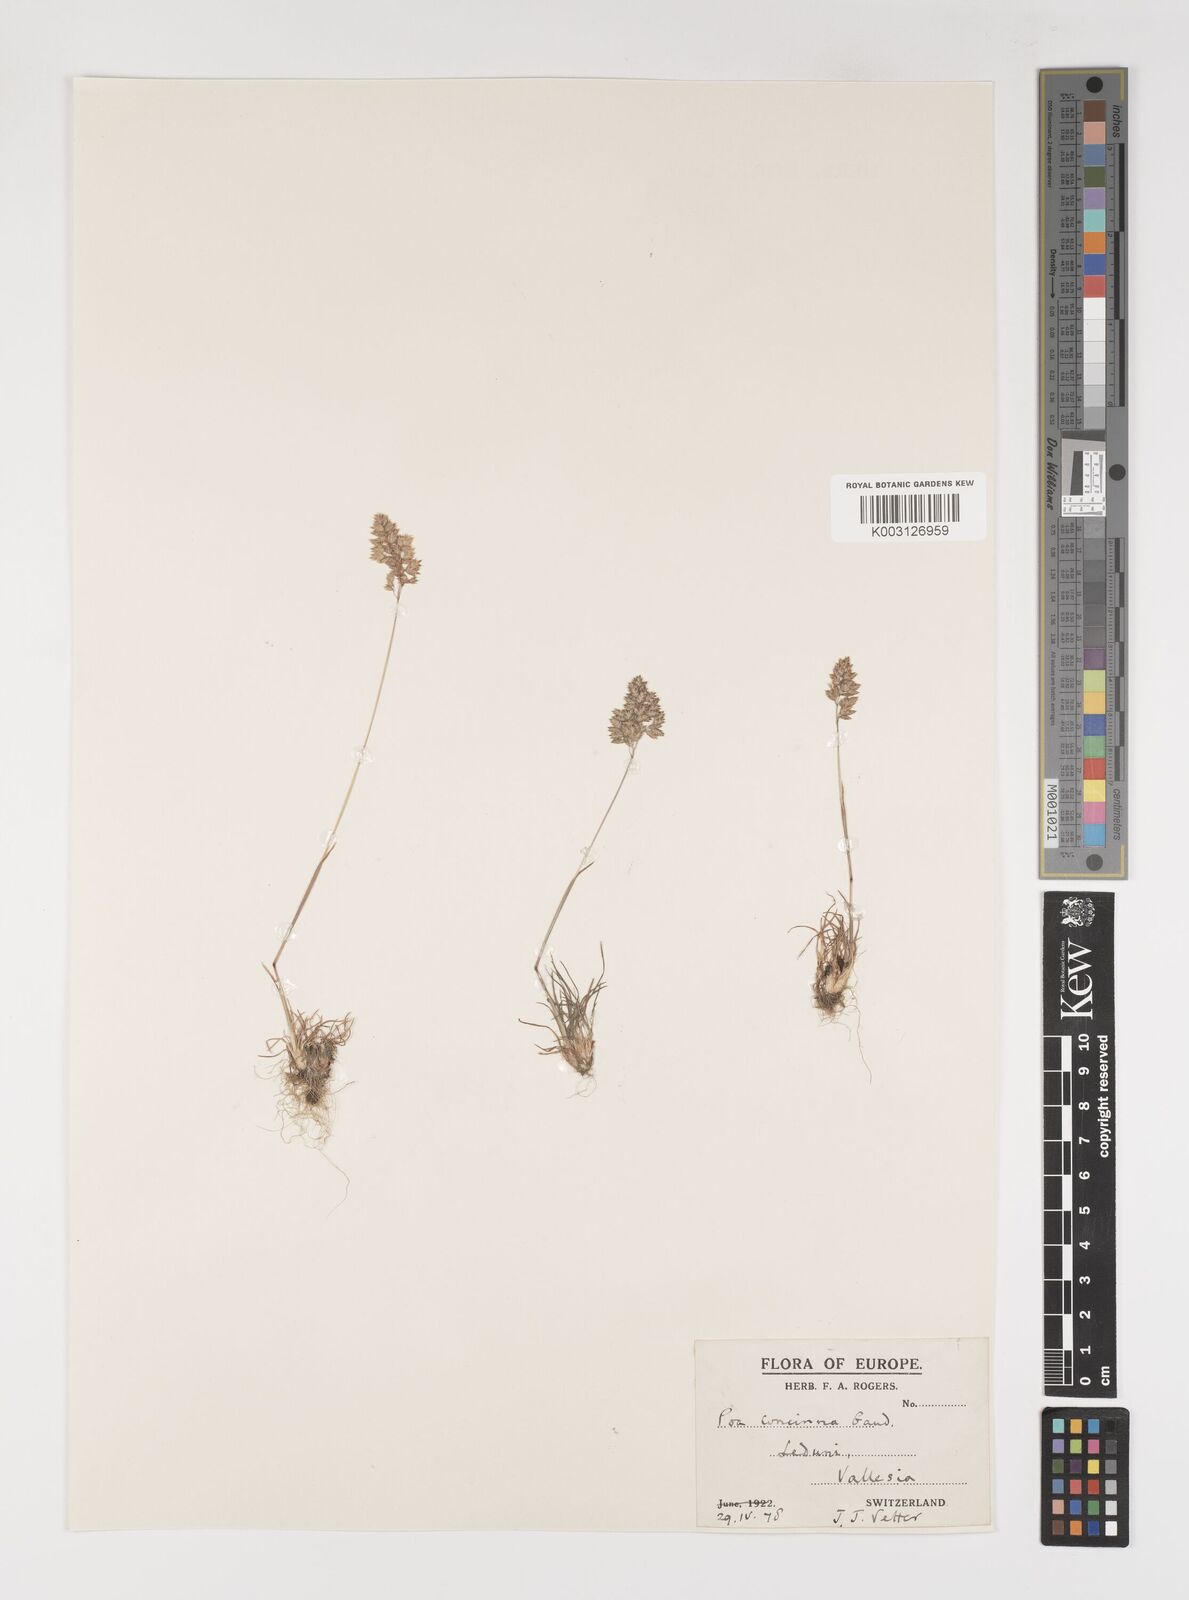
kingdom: Plantae
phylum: Tracheophyta
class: Liliopsida
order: Poales
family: Poaceae
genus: Poa
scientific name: Poa perconcinna
